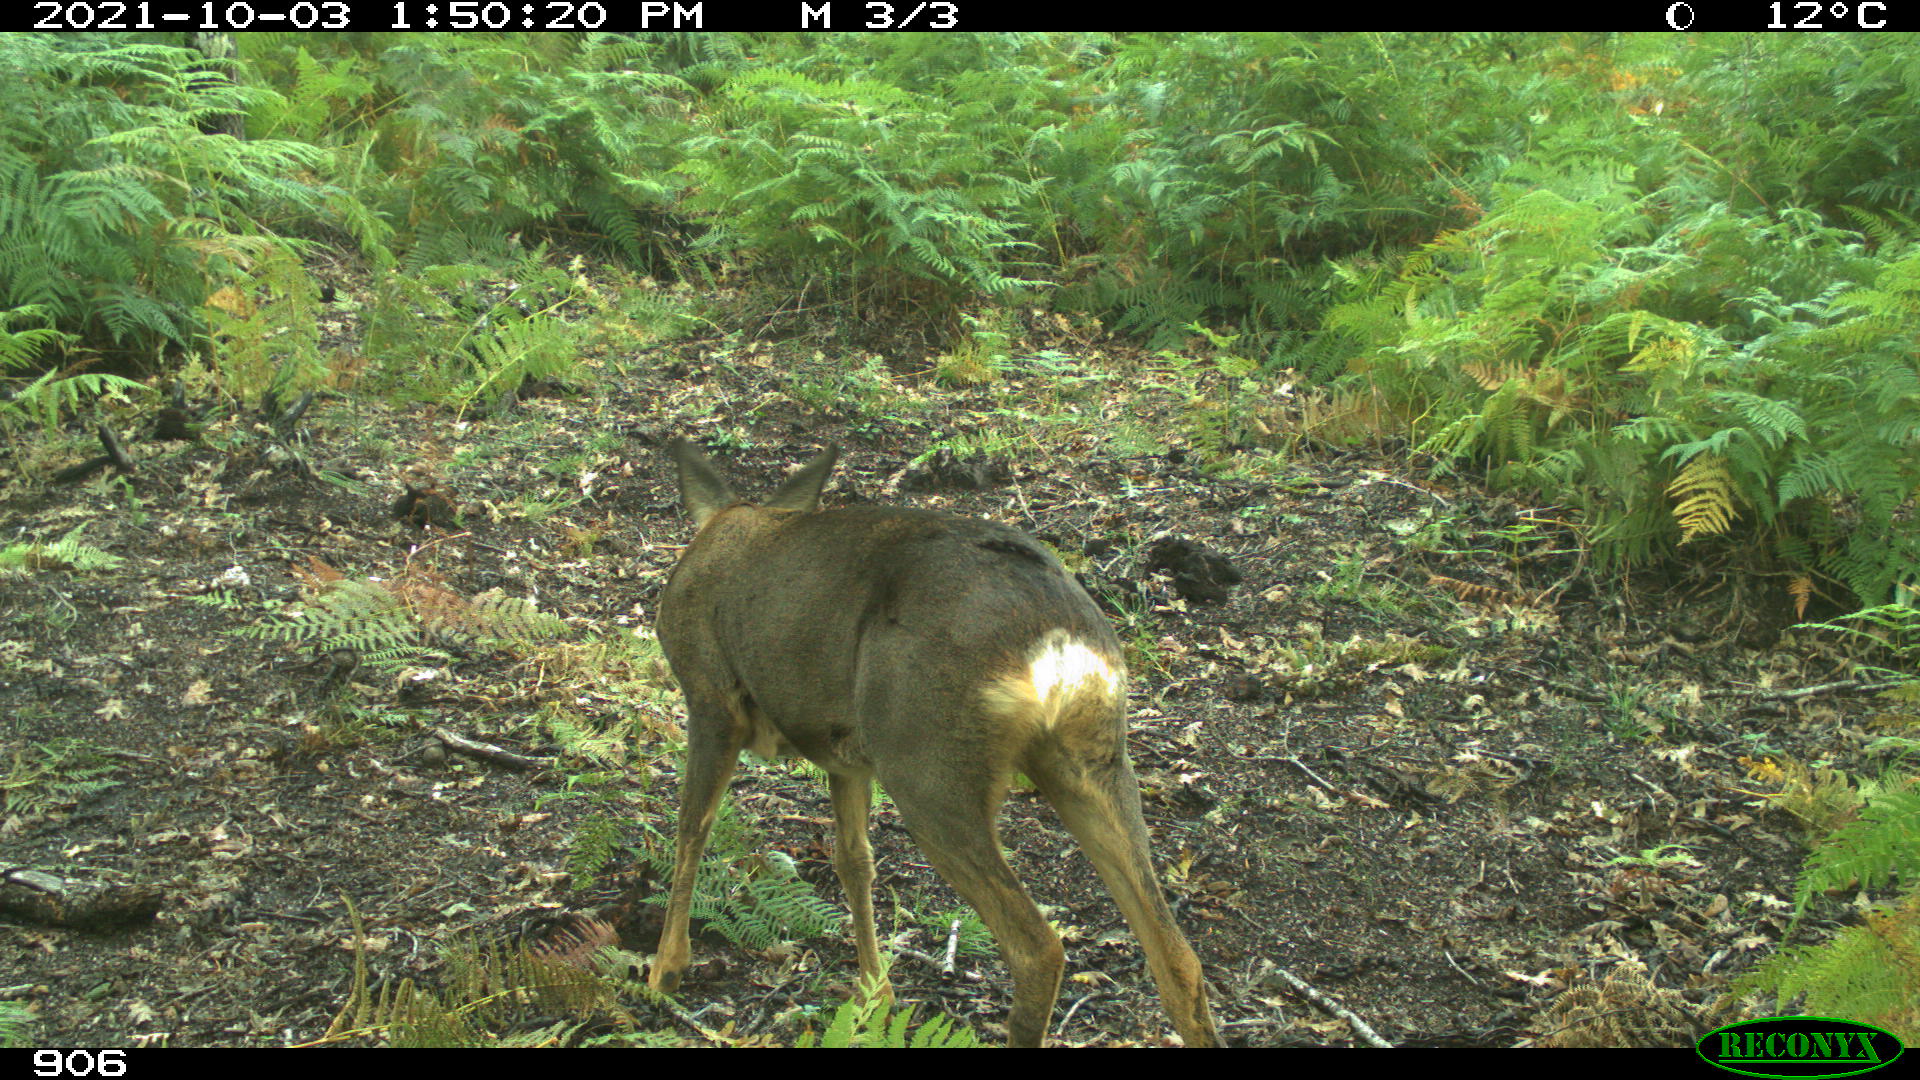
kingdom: Animalia
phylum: Chordata
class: Mammalia
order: Artiodactyla
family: Cervidae
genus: Capreolus
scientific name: Capreolus capreolus
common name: Western roe deer
